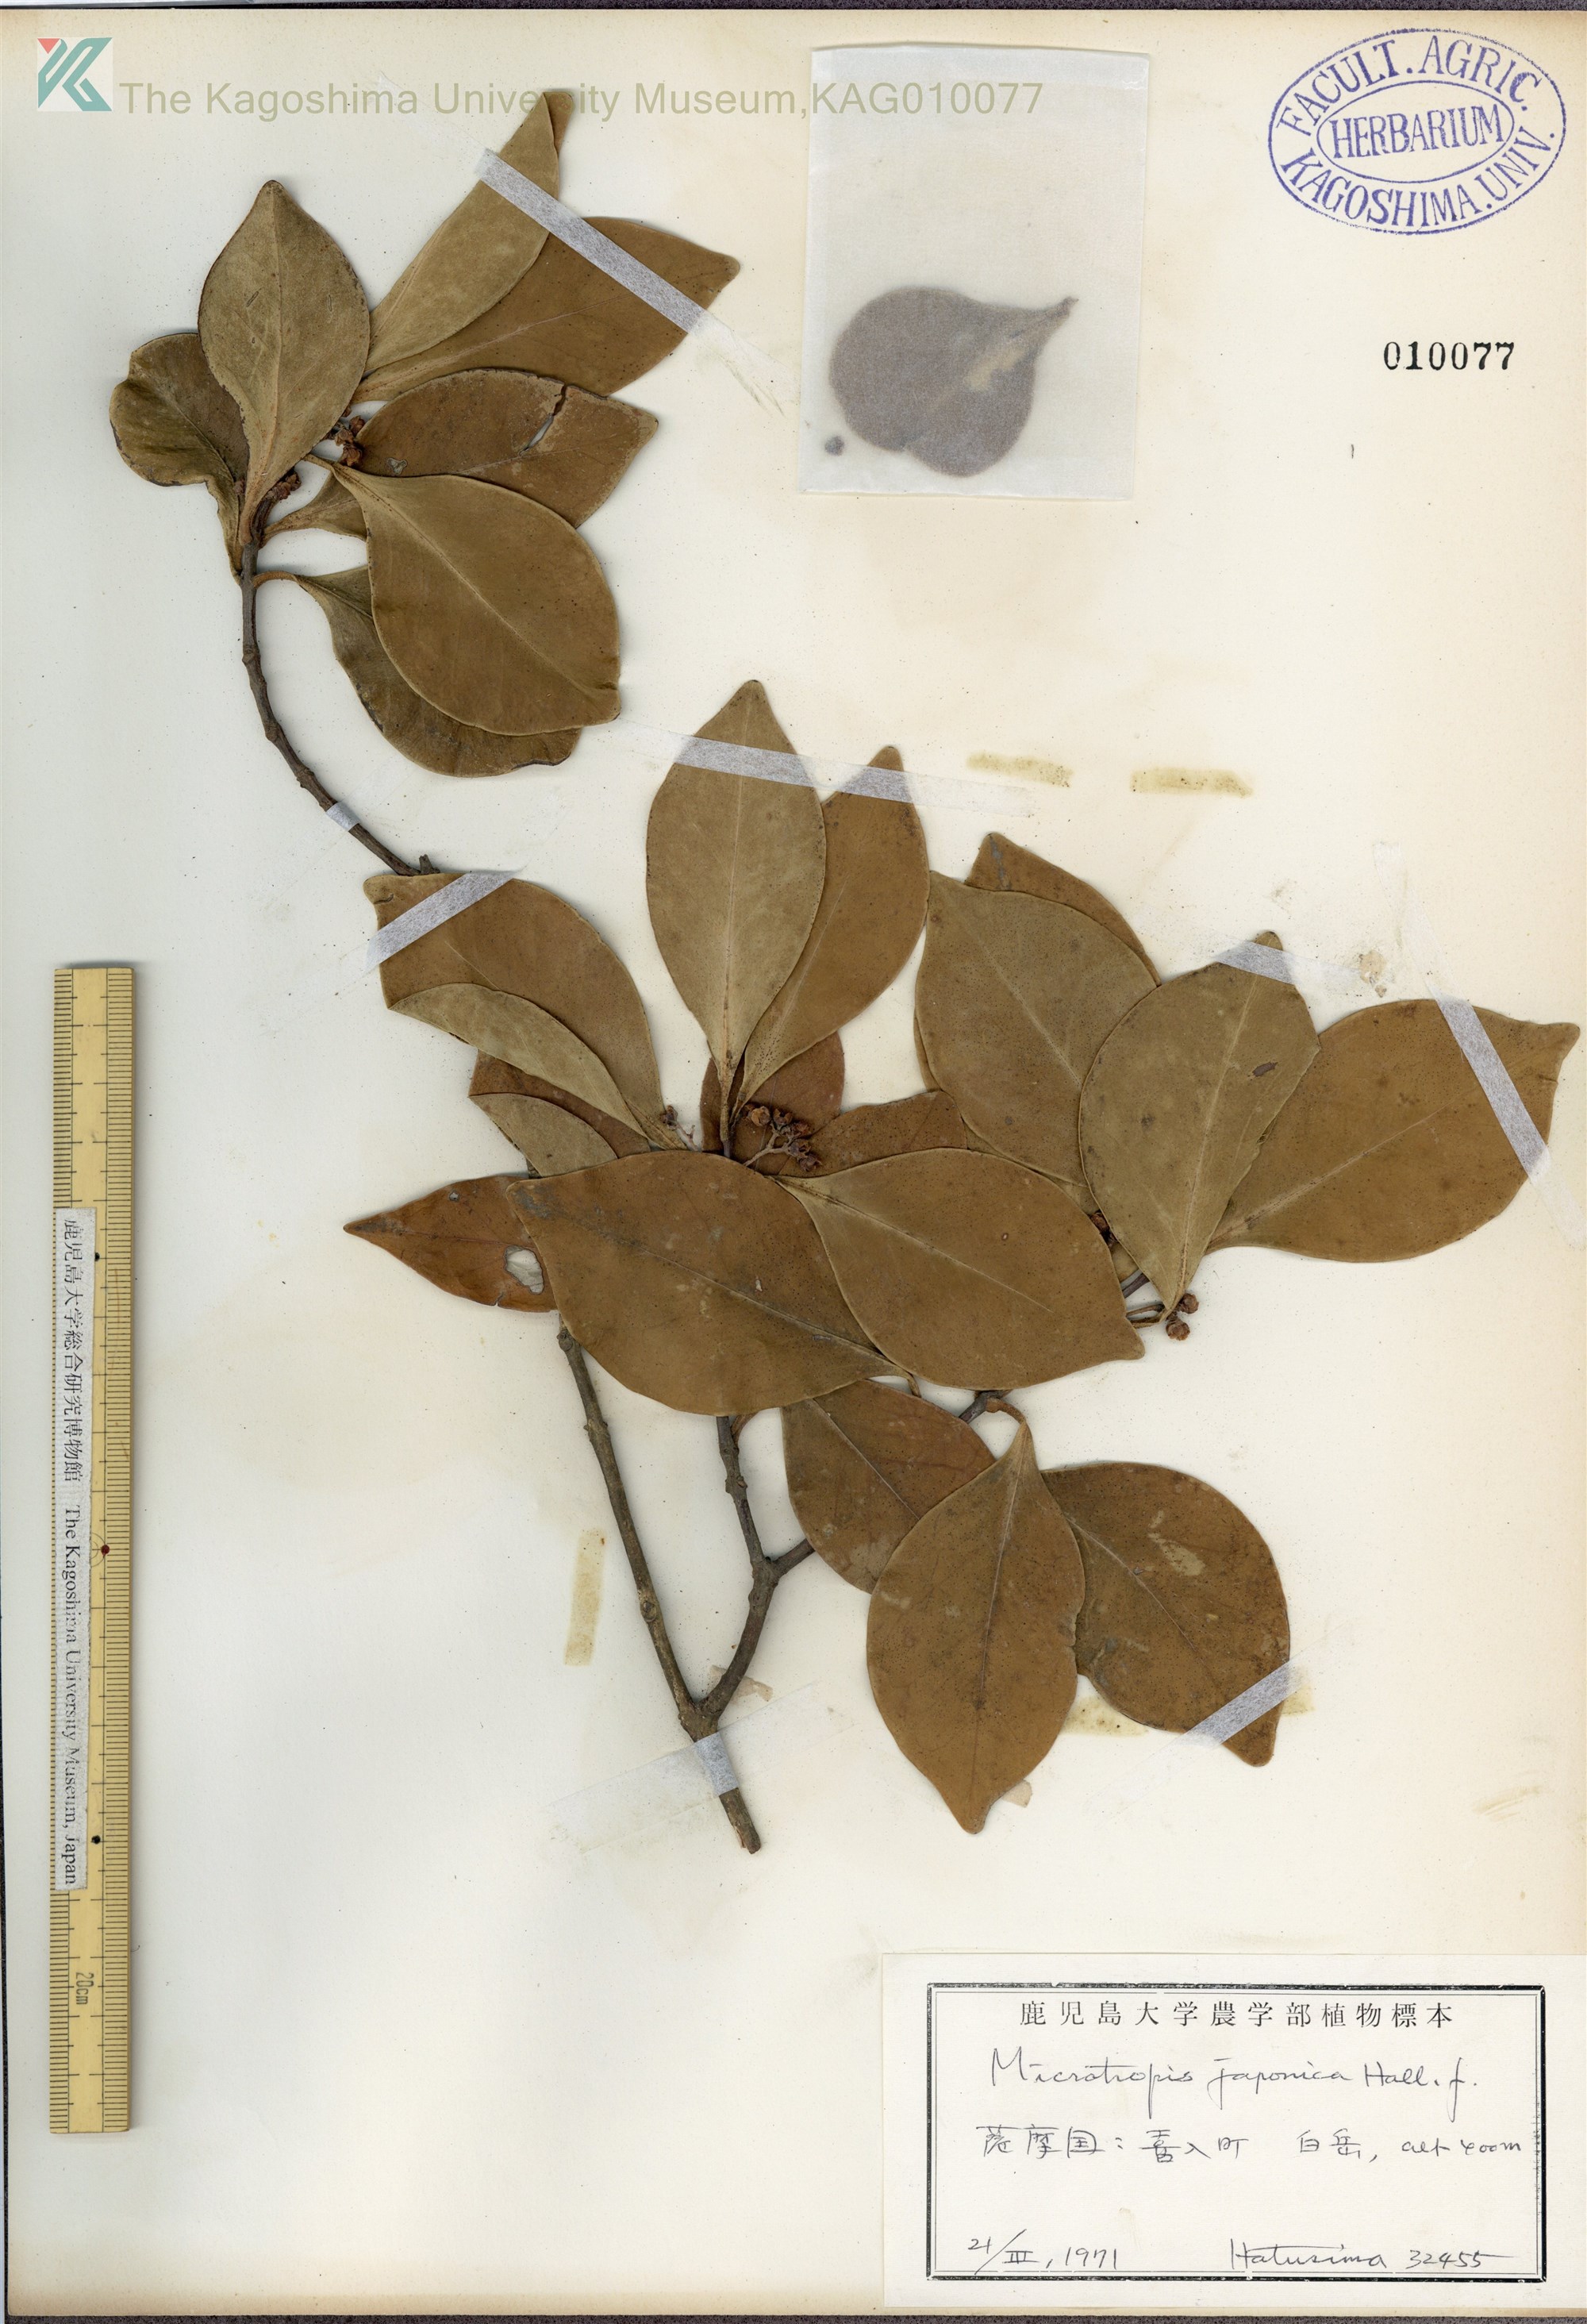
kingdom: Plantae
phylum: Tracheophyta
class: Magnoliopsida
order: Celastrales
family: Celastraceae
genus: Microtropis
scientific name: Microtropis japonica
